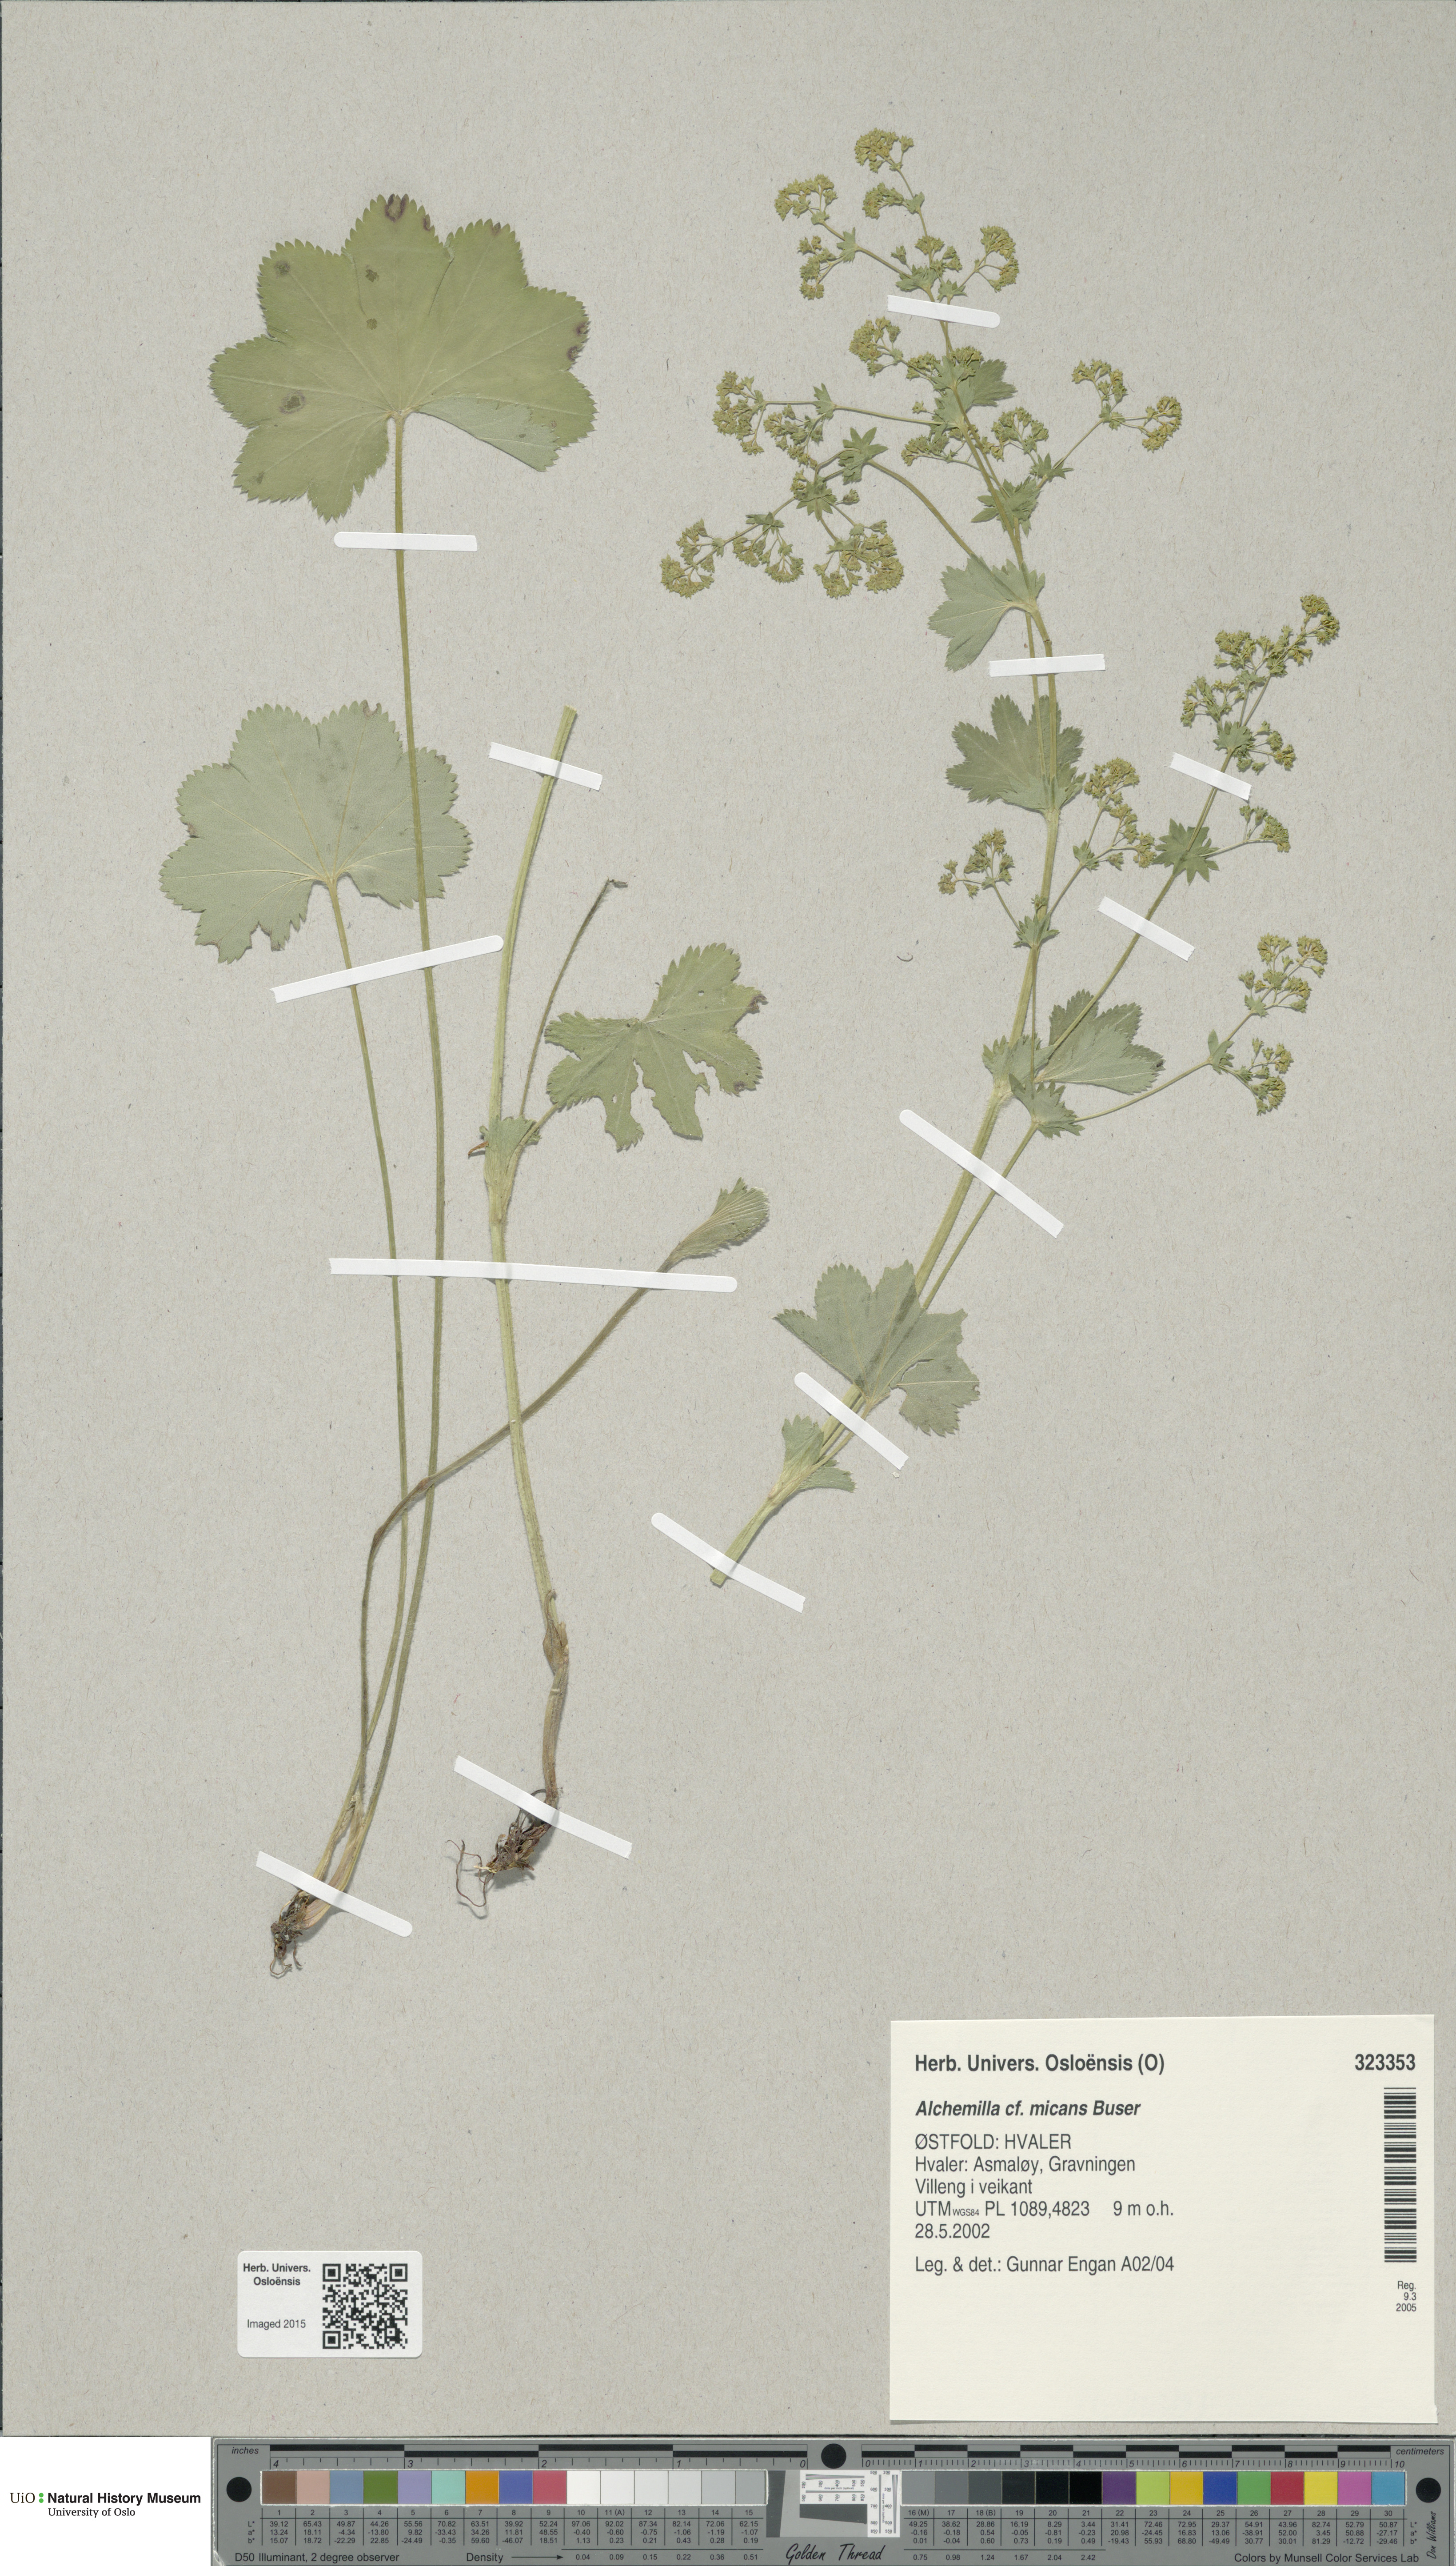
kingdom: Plantae
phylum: Tracheophyta
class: Magnoliopsida
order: Rosales
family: Rosaceae
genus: Alchemilla
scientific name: Alchemilla micans
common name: Gleaming lady's mantle
